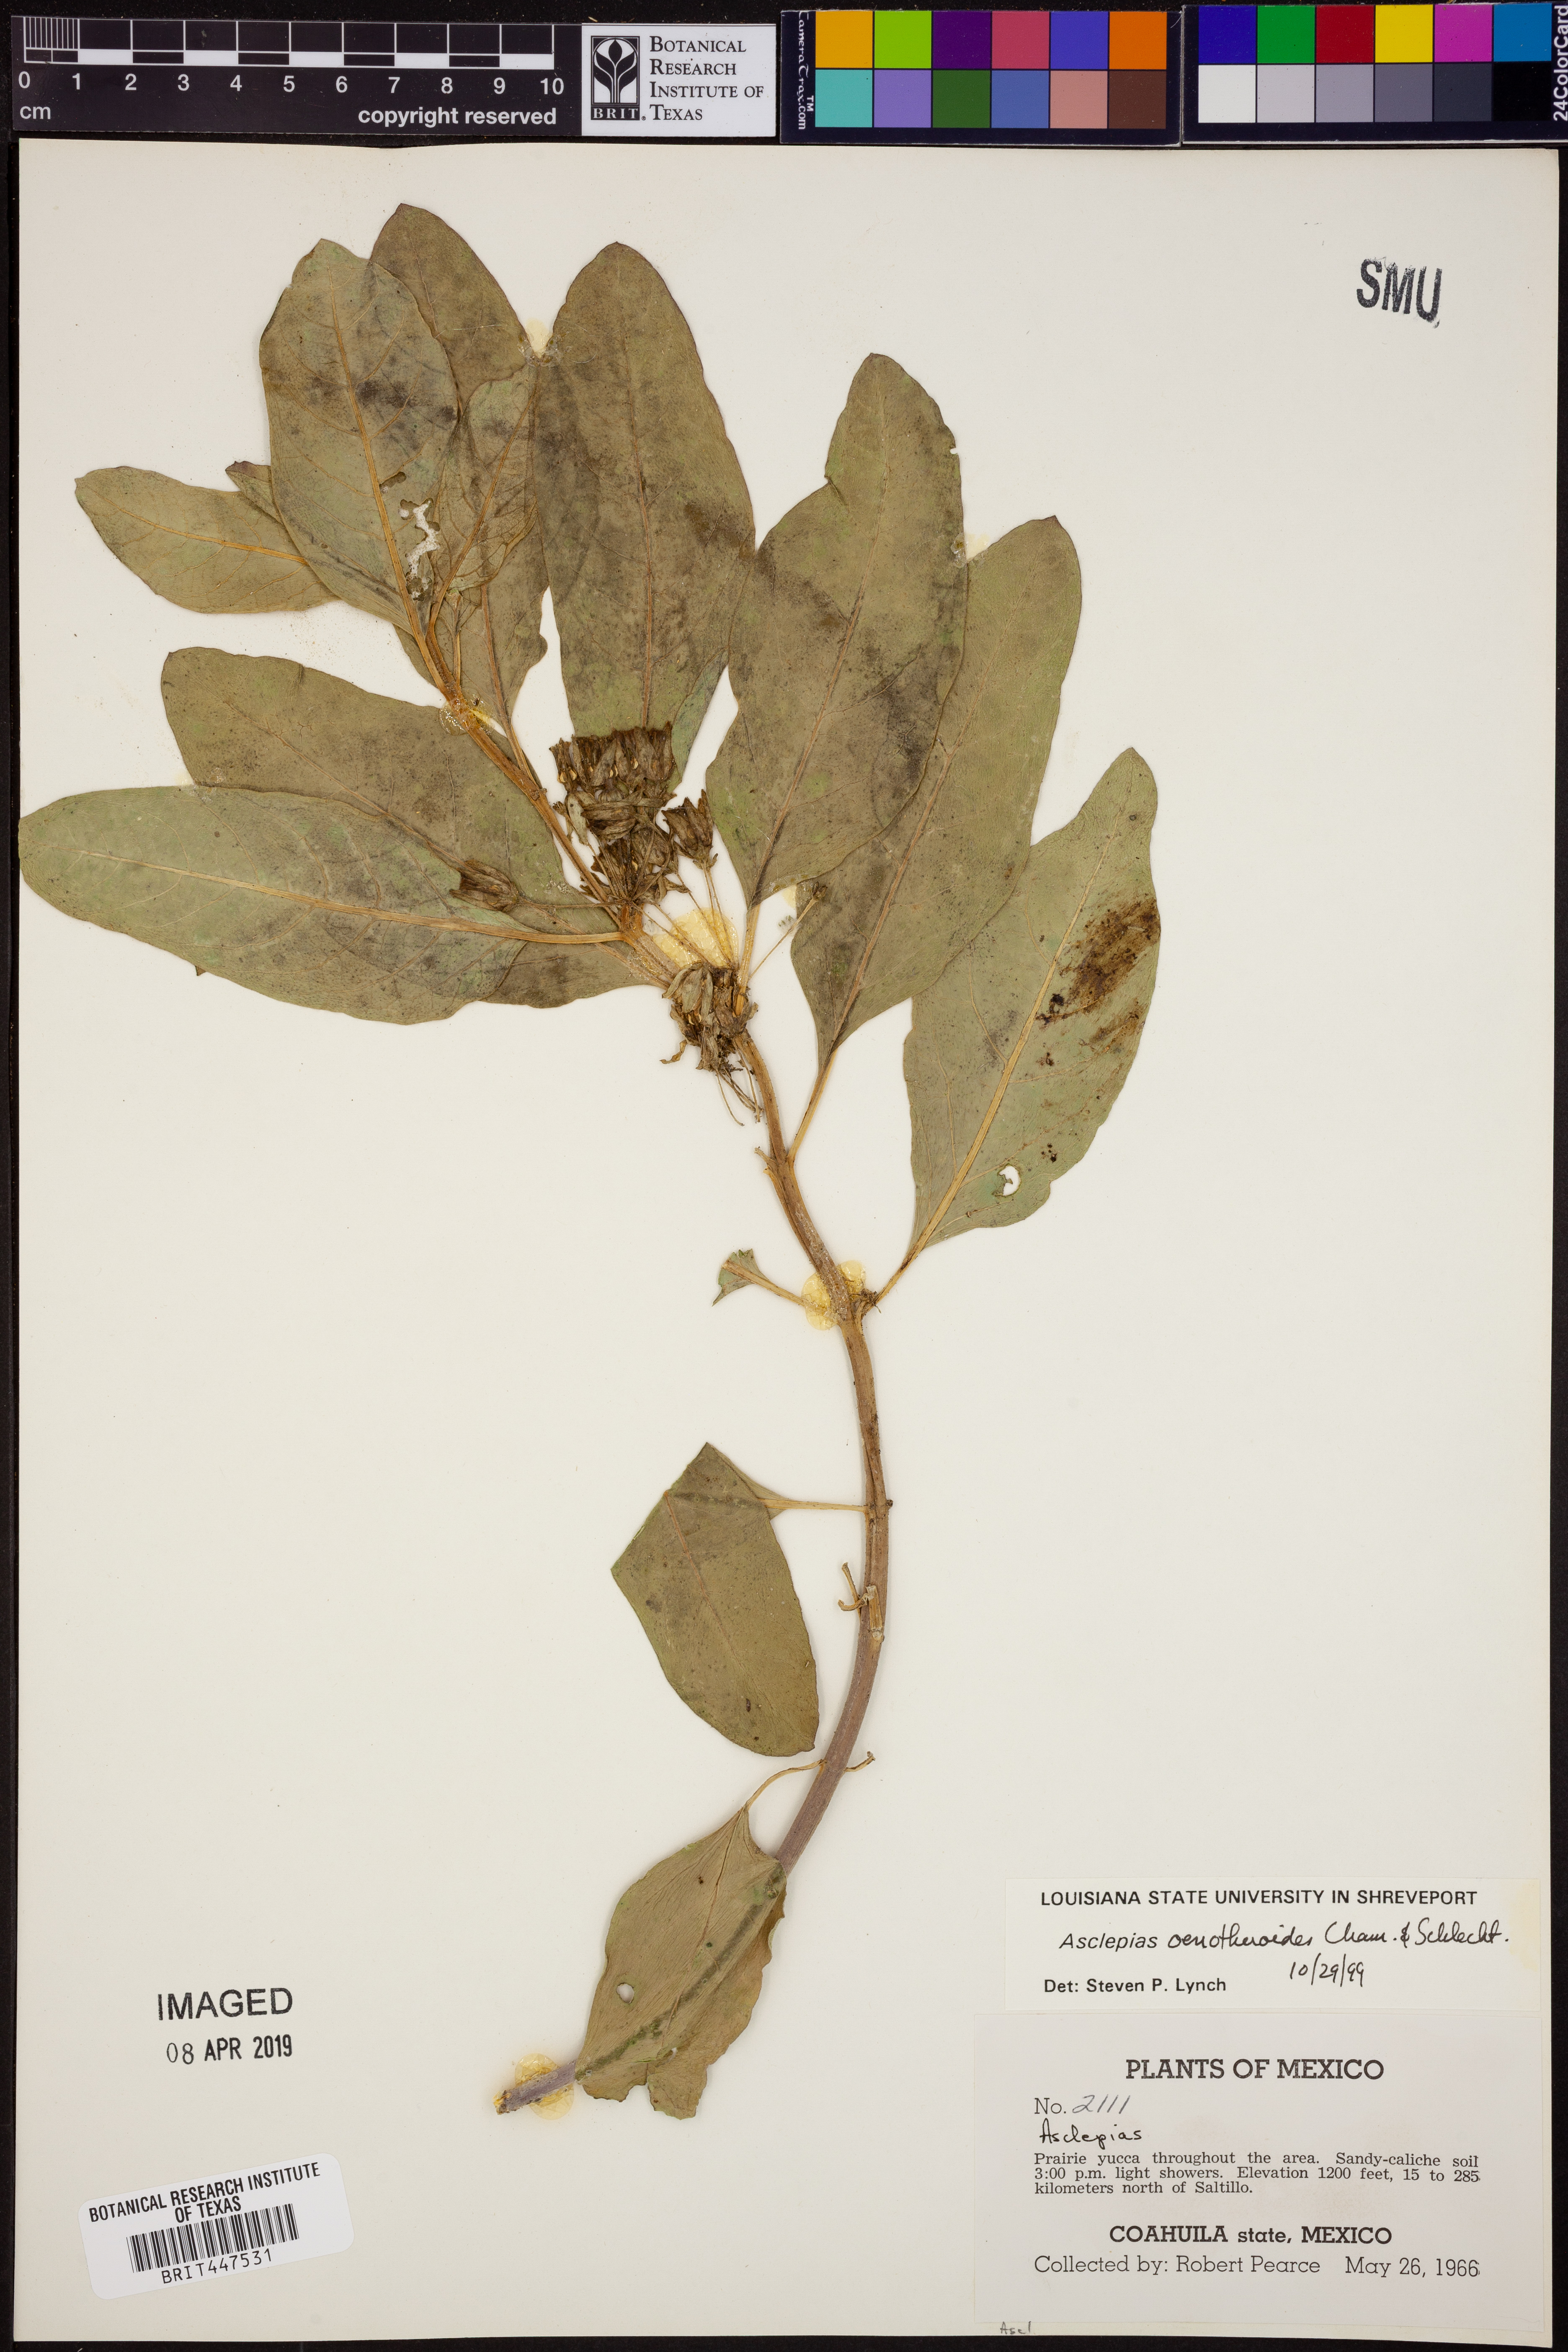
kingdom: Plantae
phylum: Tracheophyta
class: Magnoliopsida
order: Gentianales
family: Apocynaceae
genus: Asclepias
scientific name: Asclepias oenotheroides
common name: Zizotes milkweed
